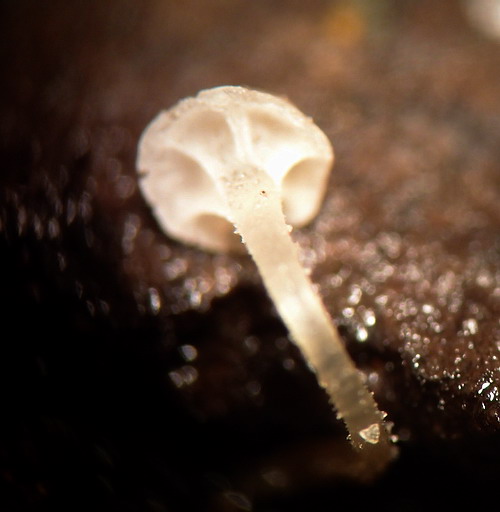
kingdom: Fungi
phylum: Basidiomycota
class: Agaricomycetes
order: Agaricales
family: Porotheleaceae
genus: Phloeomana
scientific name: Phloeomana speirea
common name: kvist-huesvamp
